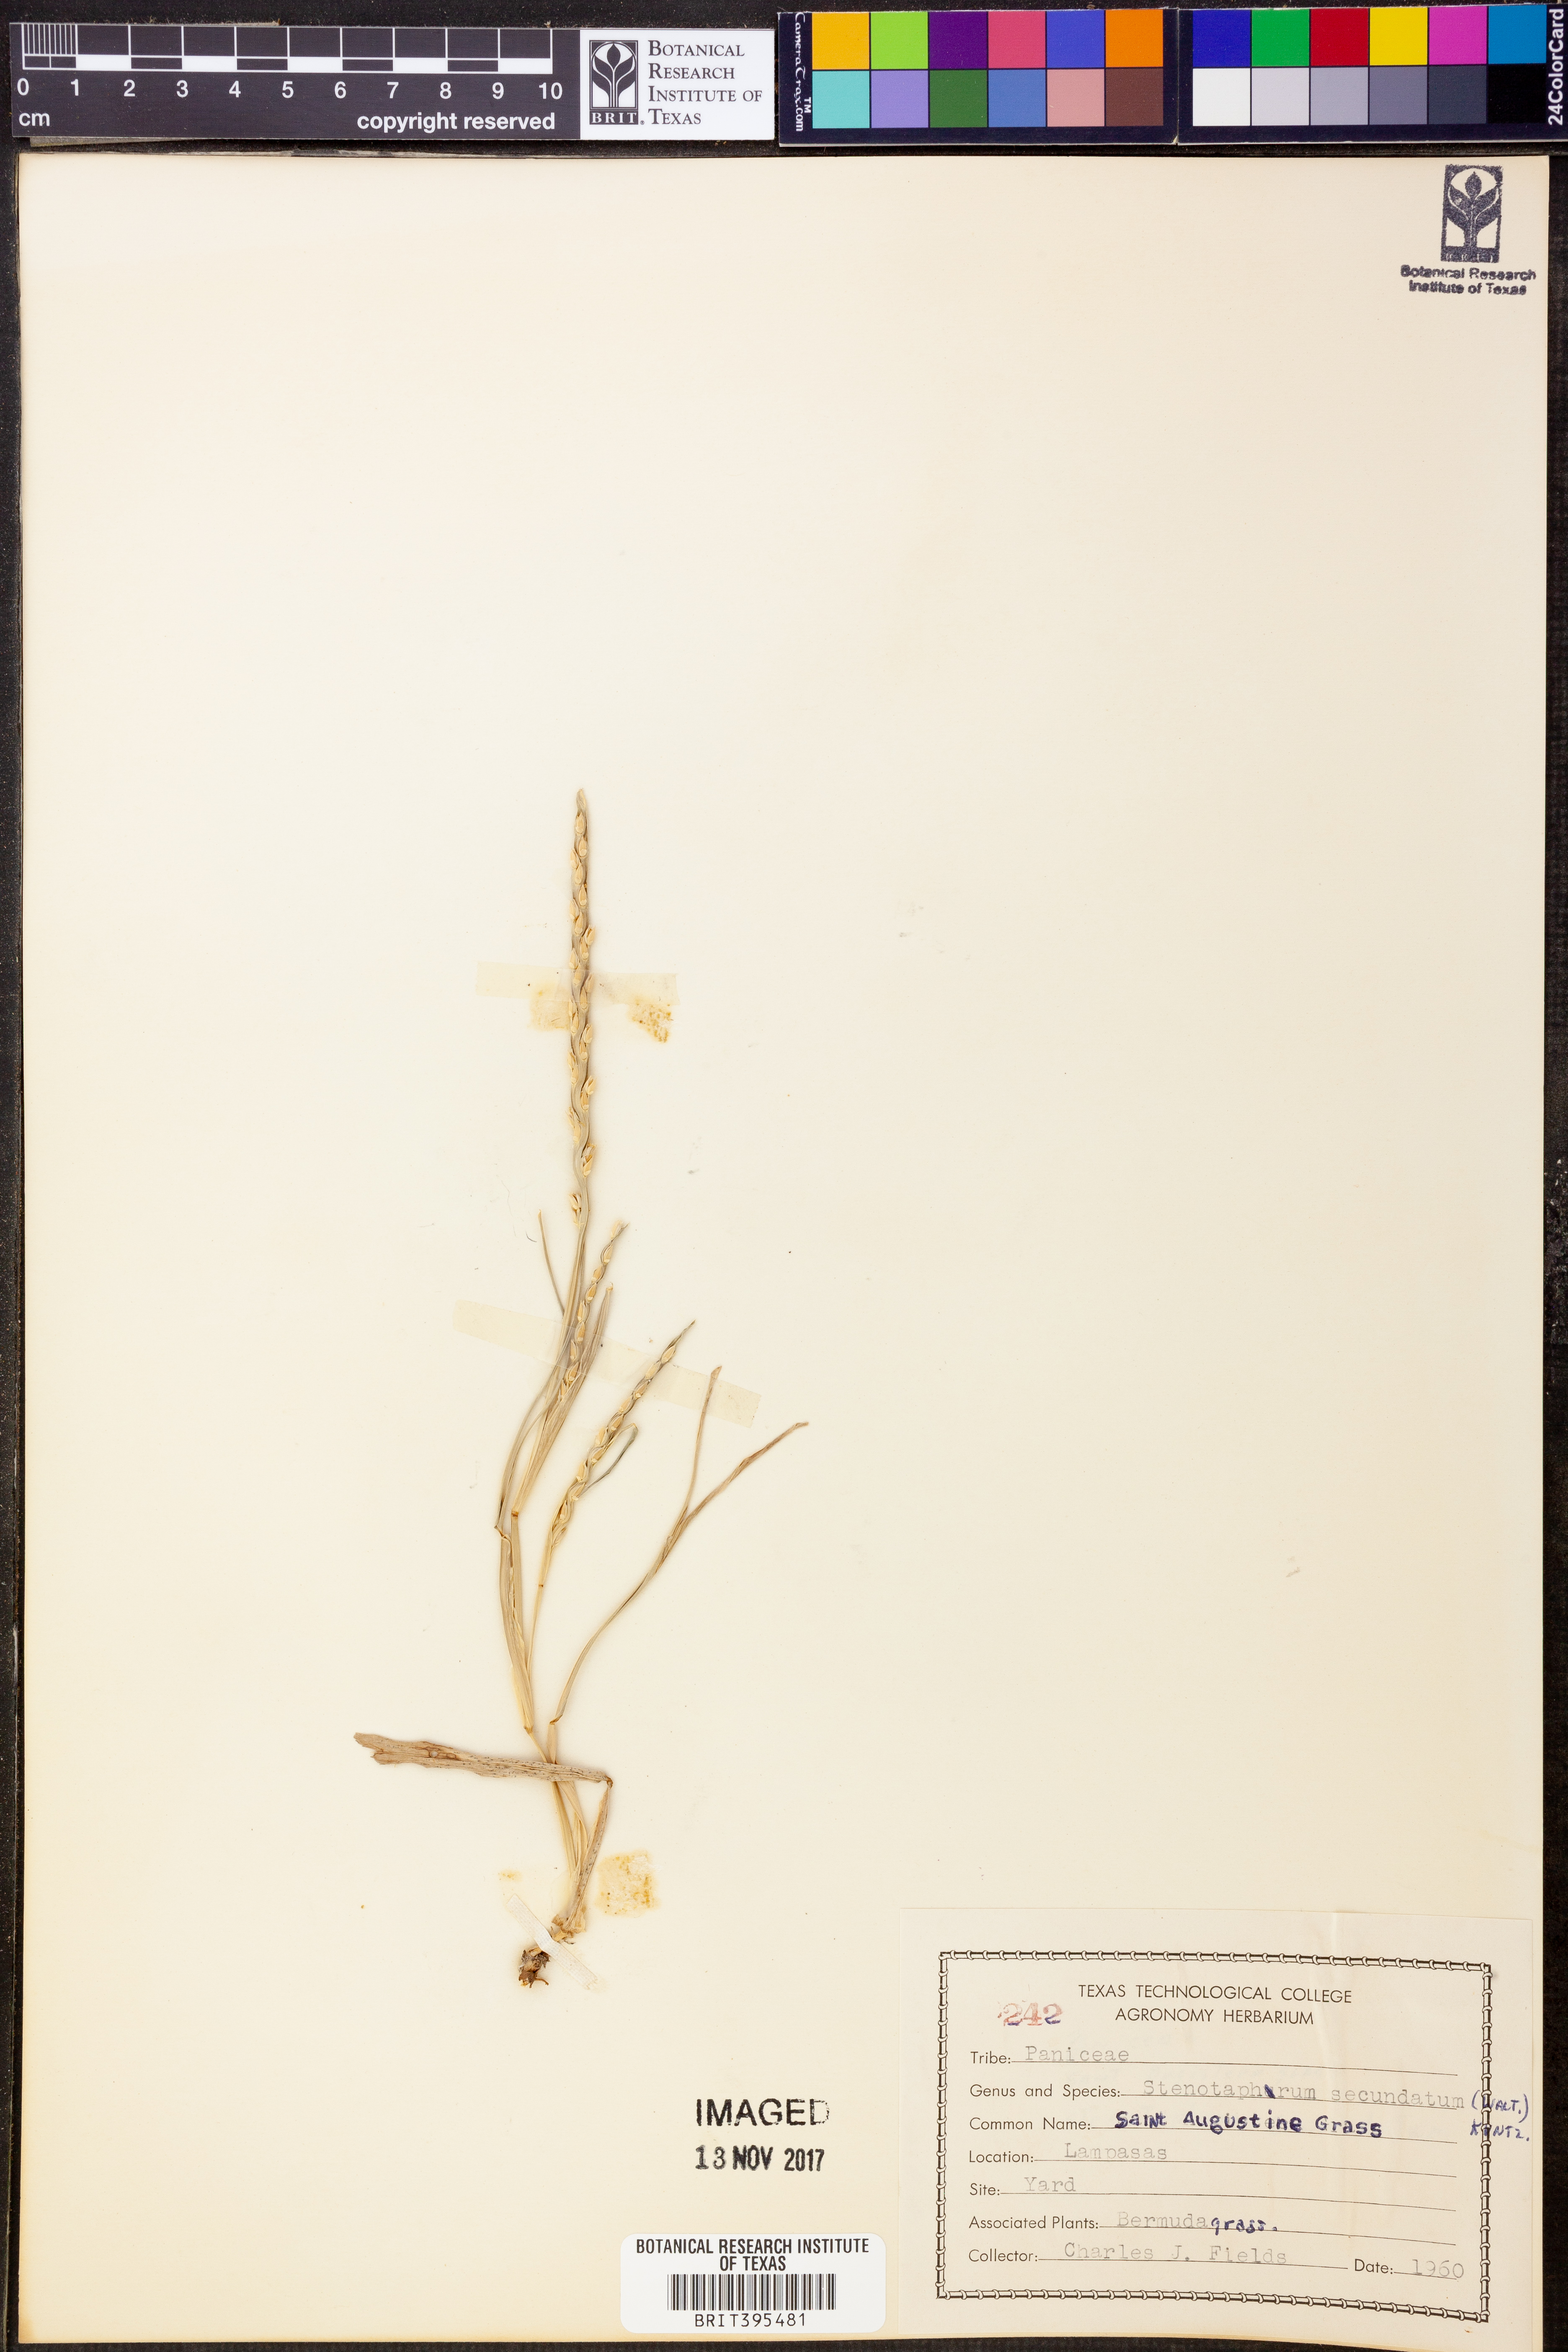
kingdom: Plantae
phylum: Tracheophyta
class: Liliopsida
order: Poales
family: Poaceae
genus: Stenotaphrum
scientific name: Stenotaphrum secundatum
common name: St. augustine grass
